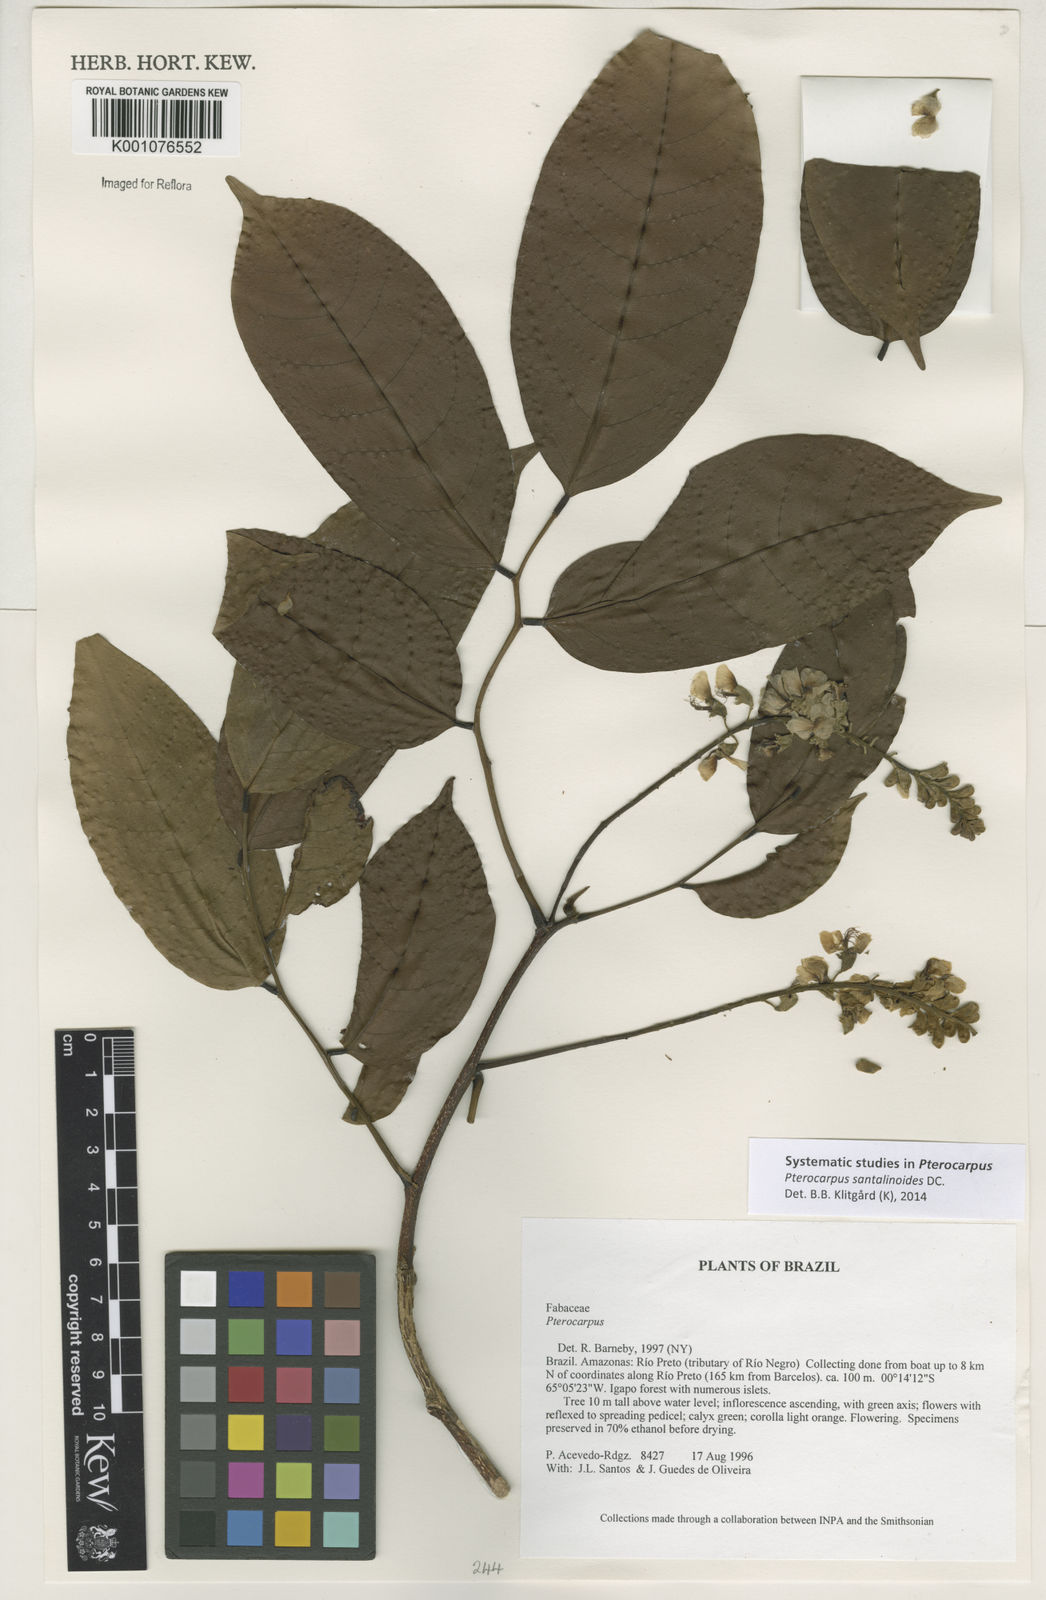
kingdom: Plantae
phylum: Tracheophyta
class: Magnoliopsida
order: Fabales
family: Fabaceae
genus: Pterocarpus
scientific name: Pterocarpus santalinoides
